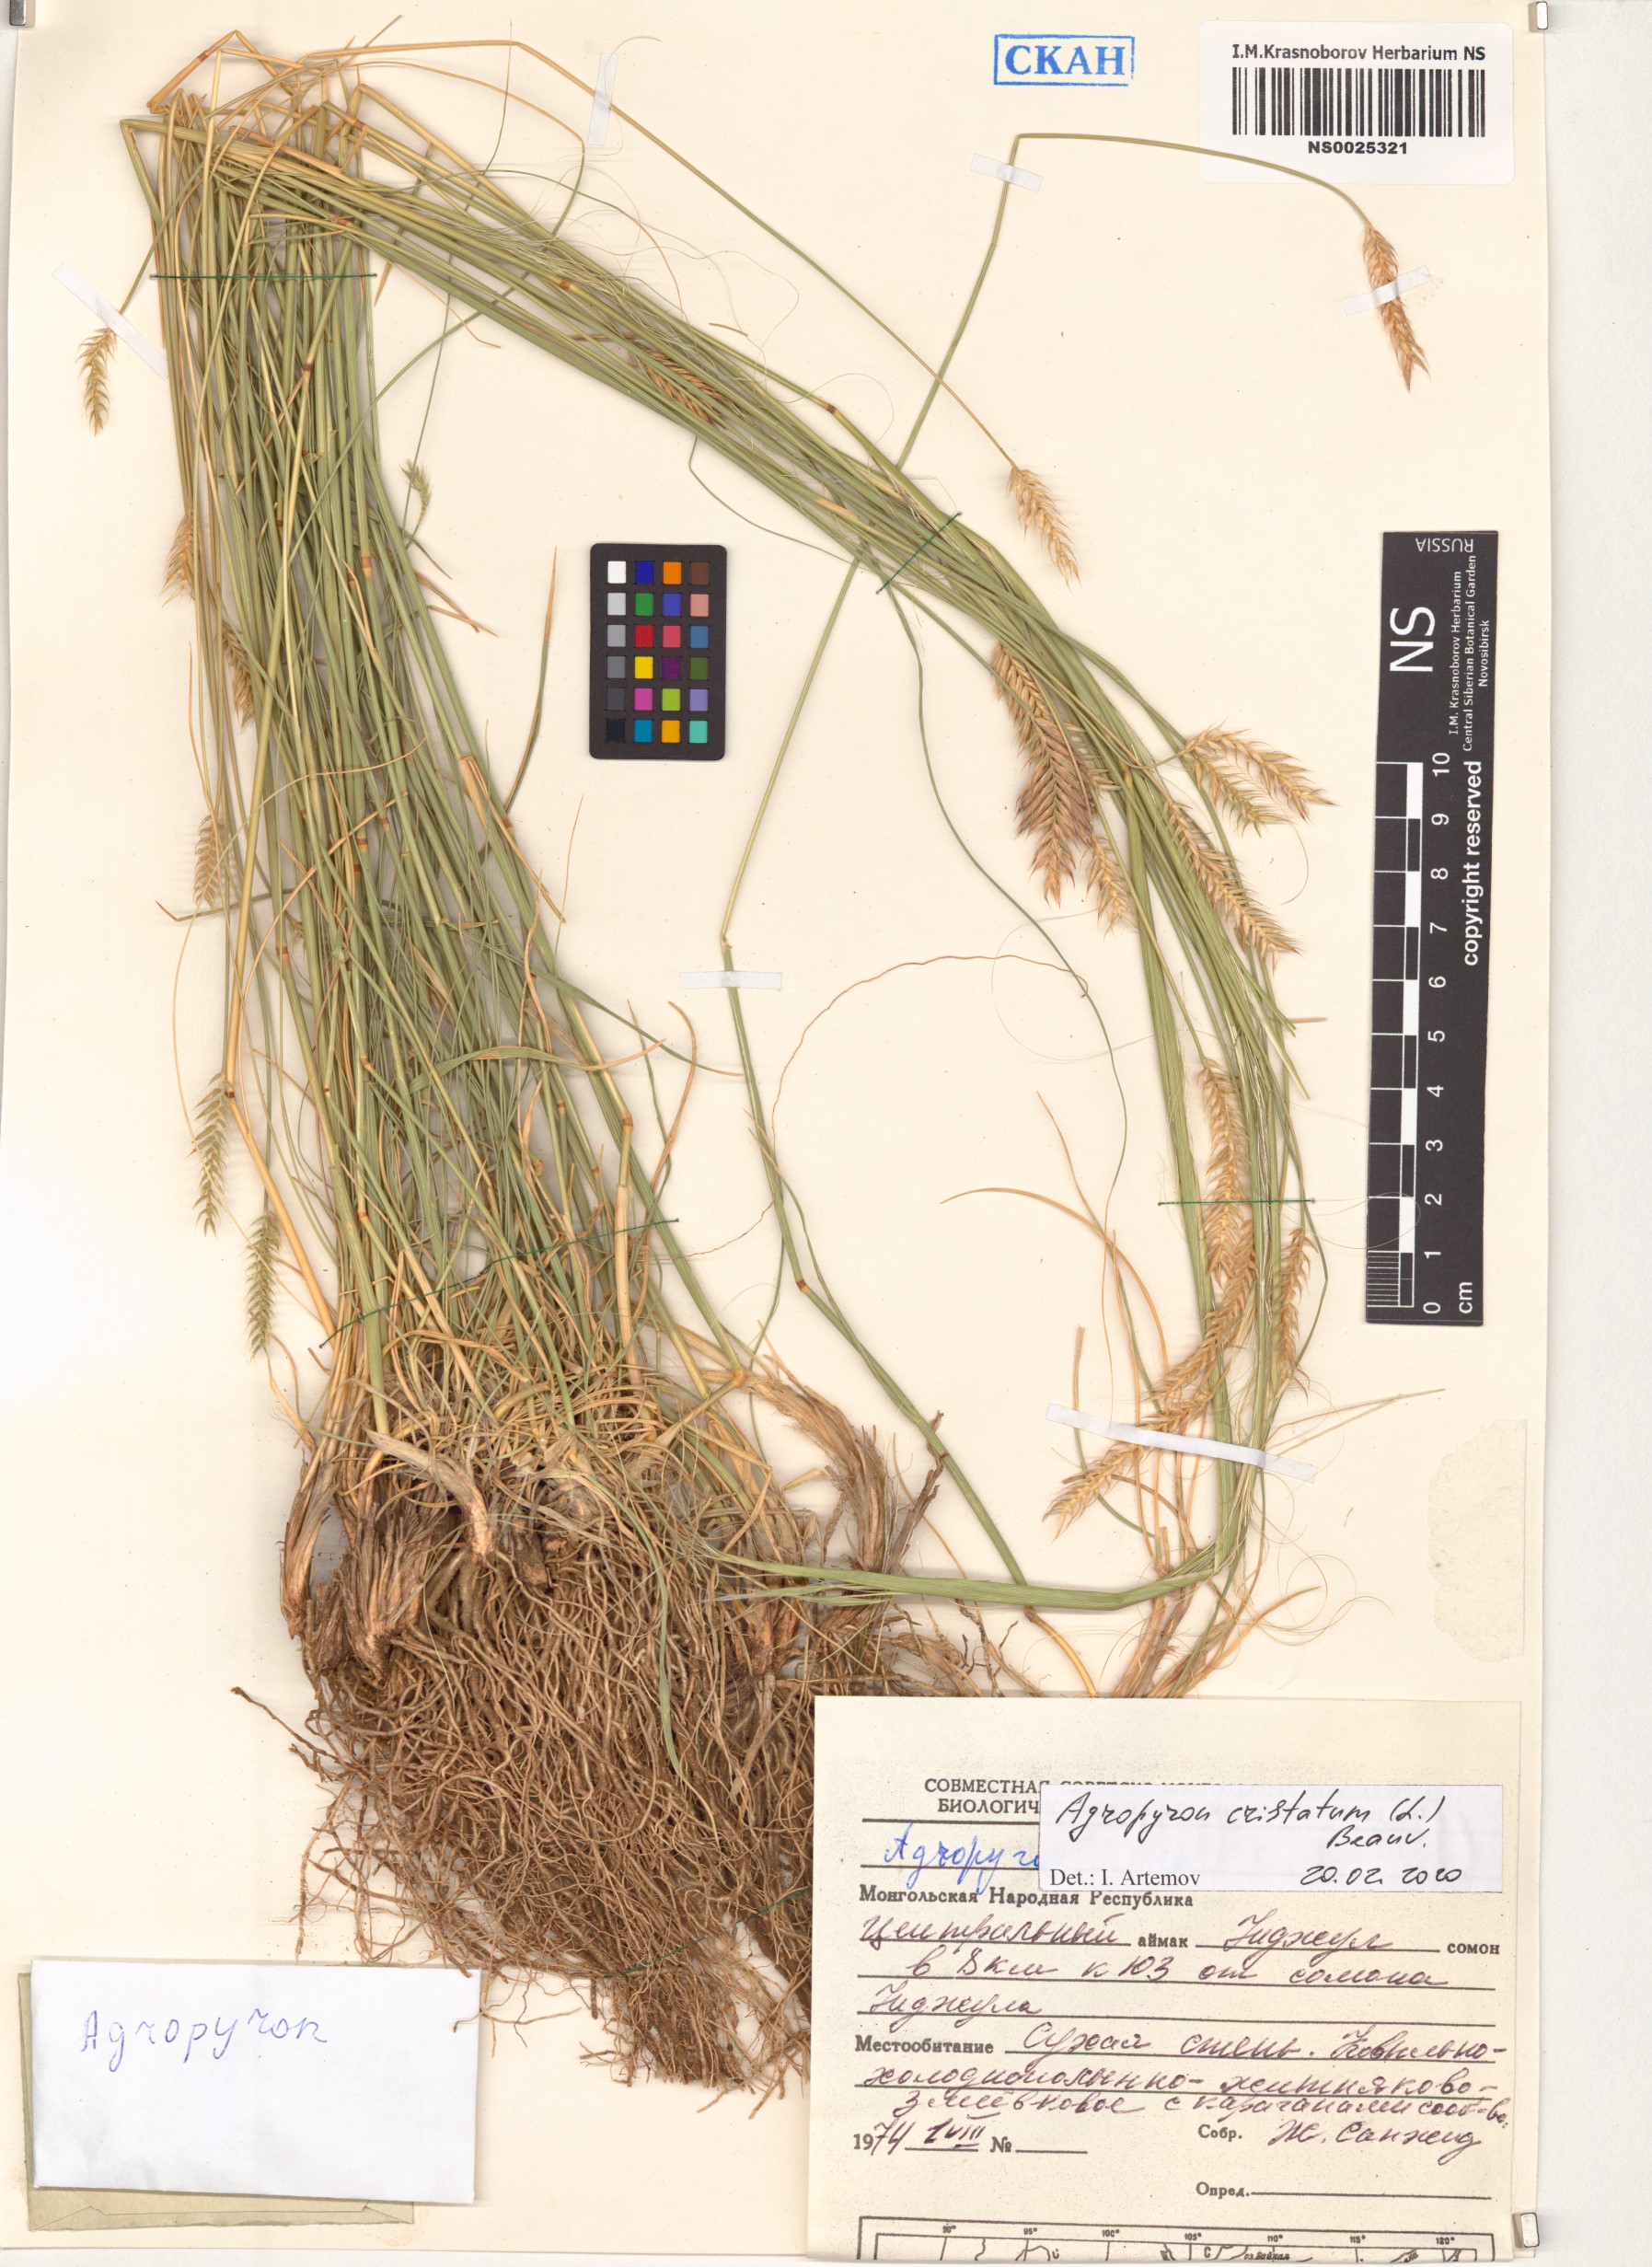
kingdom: Plantae
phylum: Tracheophyta
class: Liliopsida
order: Poales
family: Poaceae
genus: Agropyron
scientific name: Agropyron cristatum
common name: Crested wheatgrass
